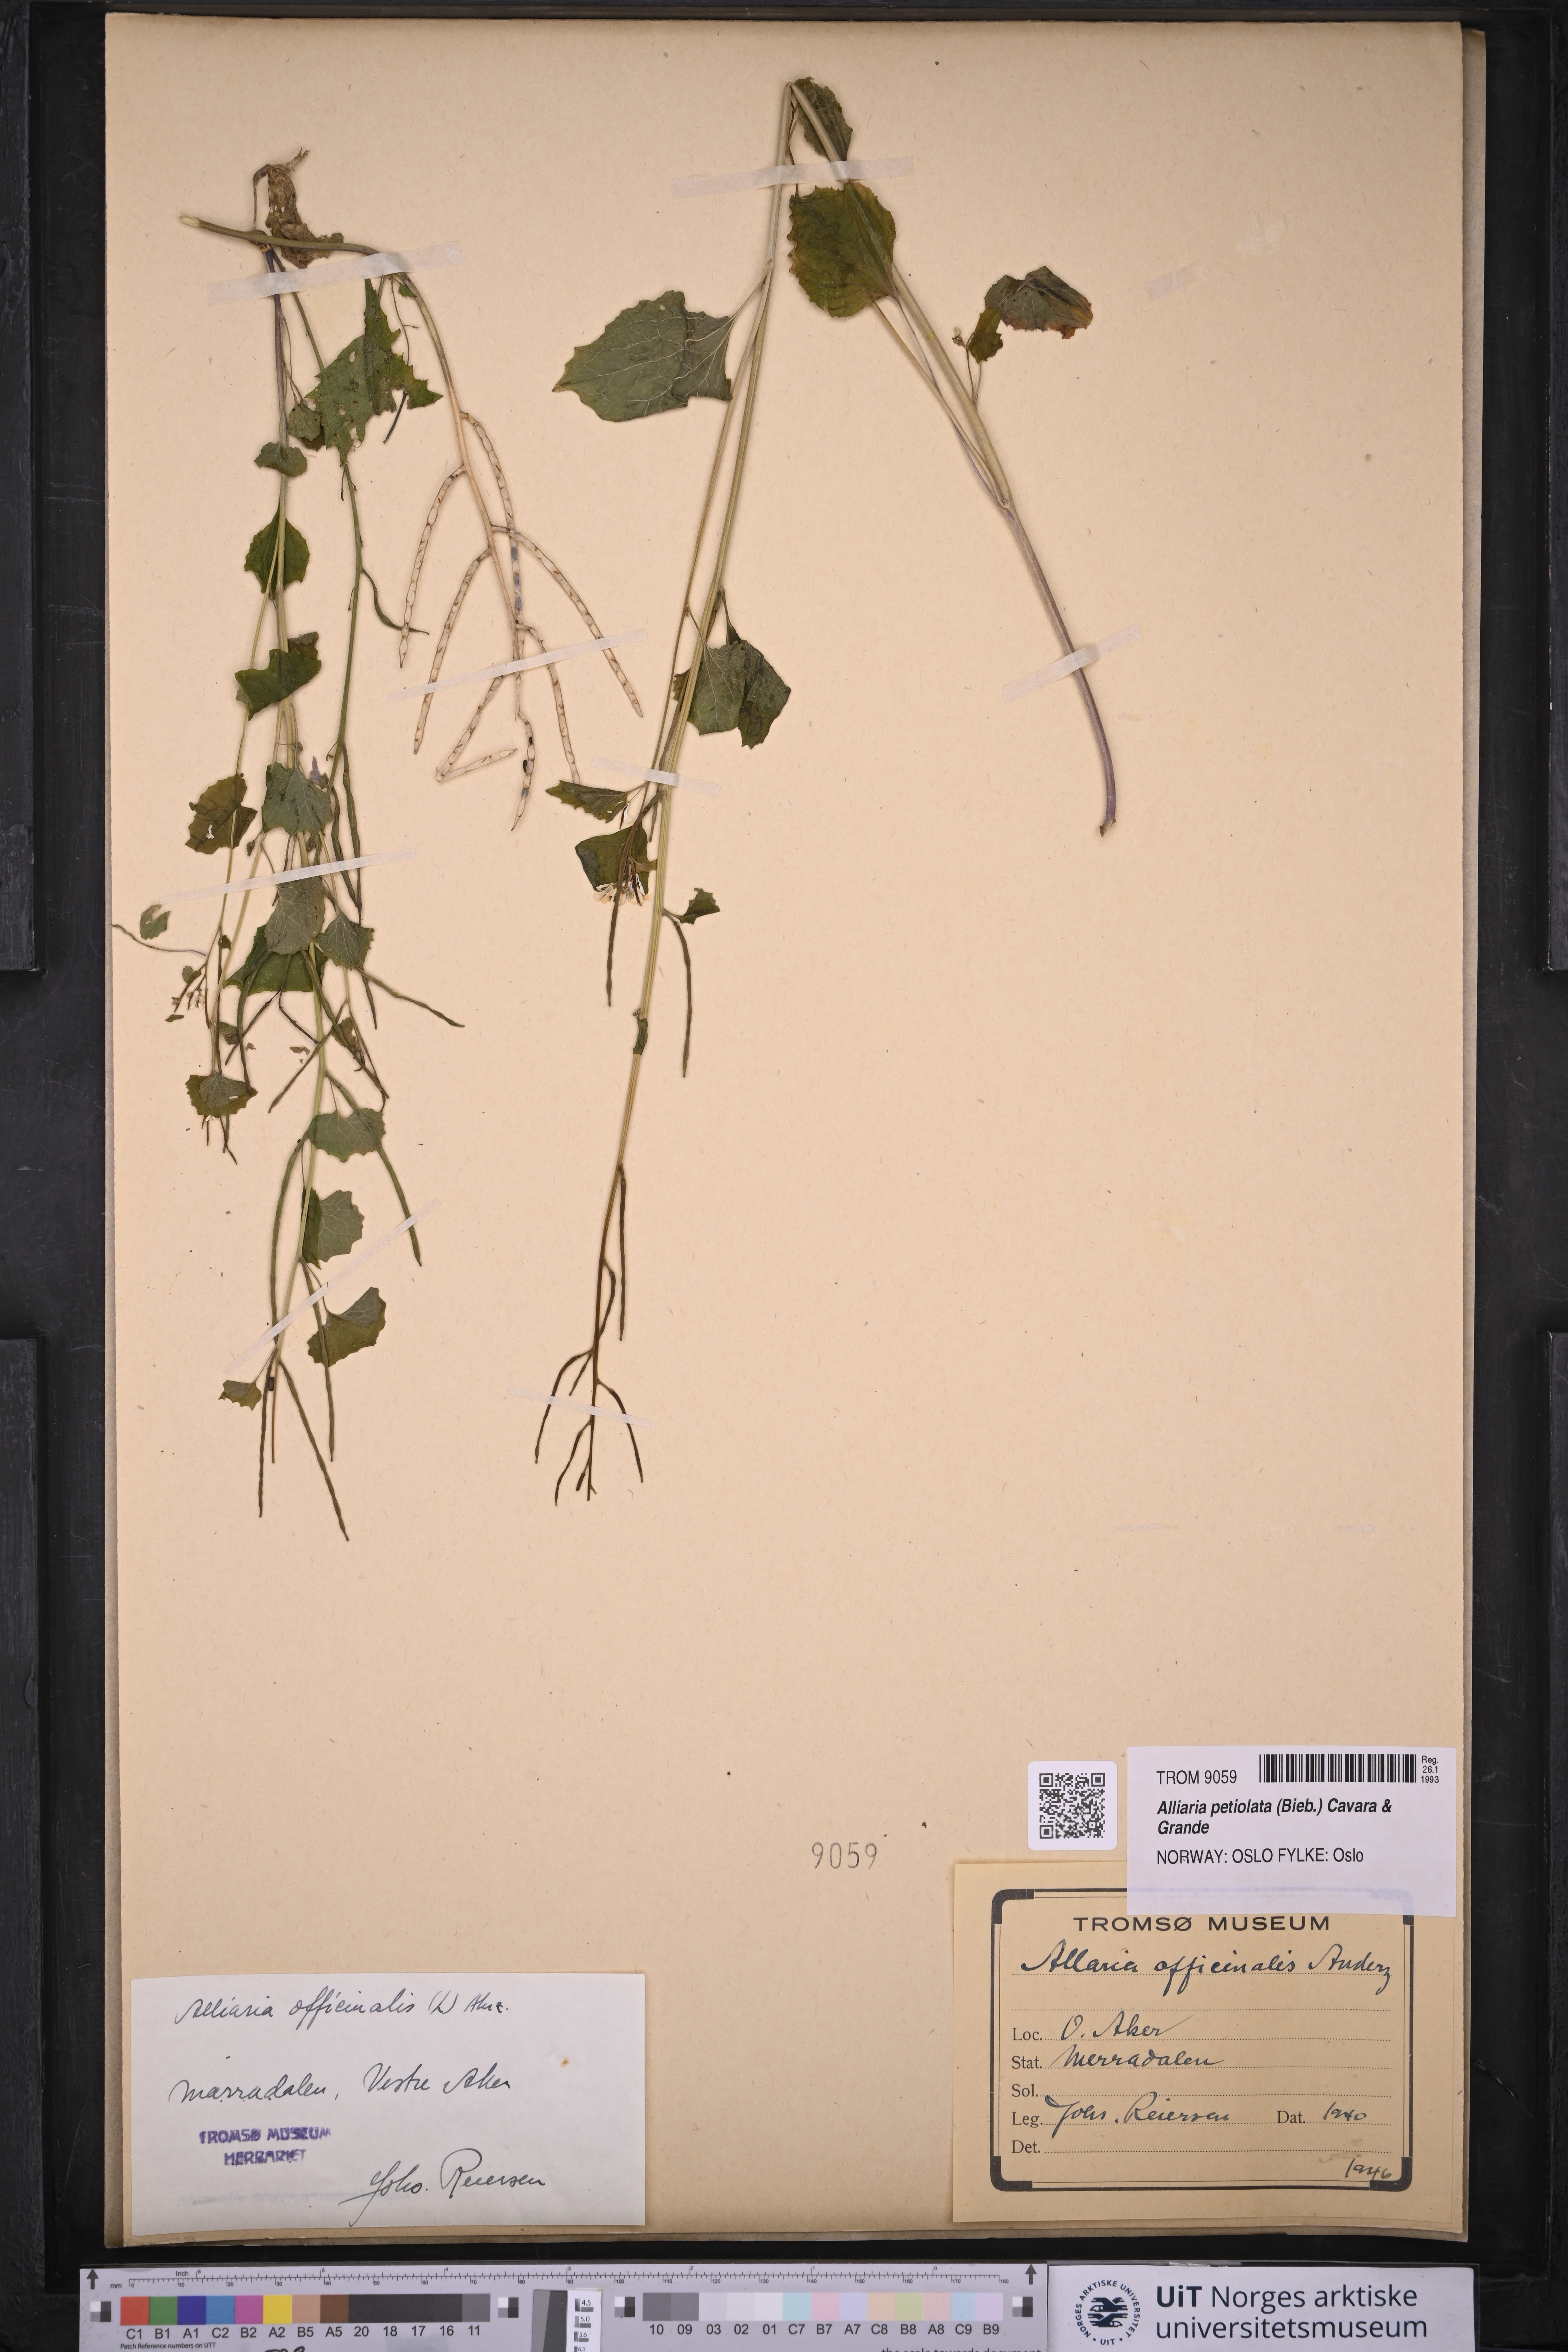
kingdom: Plantae
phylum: Tracheophyta
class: Magnoliopsida
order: Brassicales
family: Brassicaceae
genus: Alliaria
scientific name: Alliaria petiolata
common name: Garlic mustard
